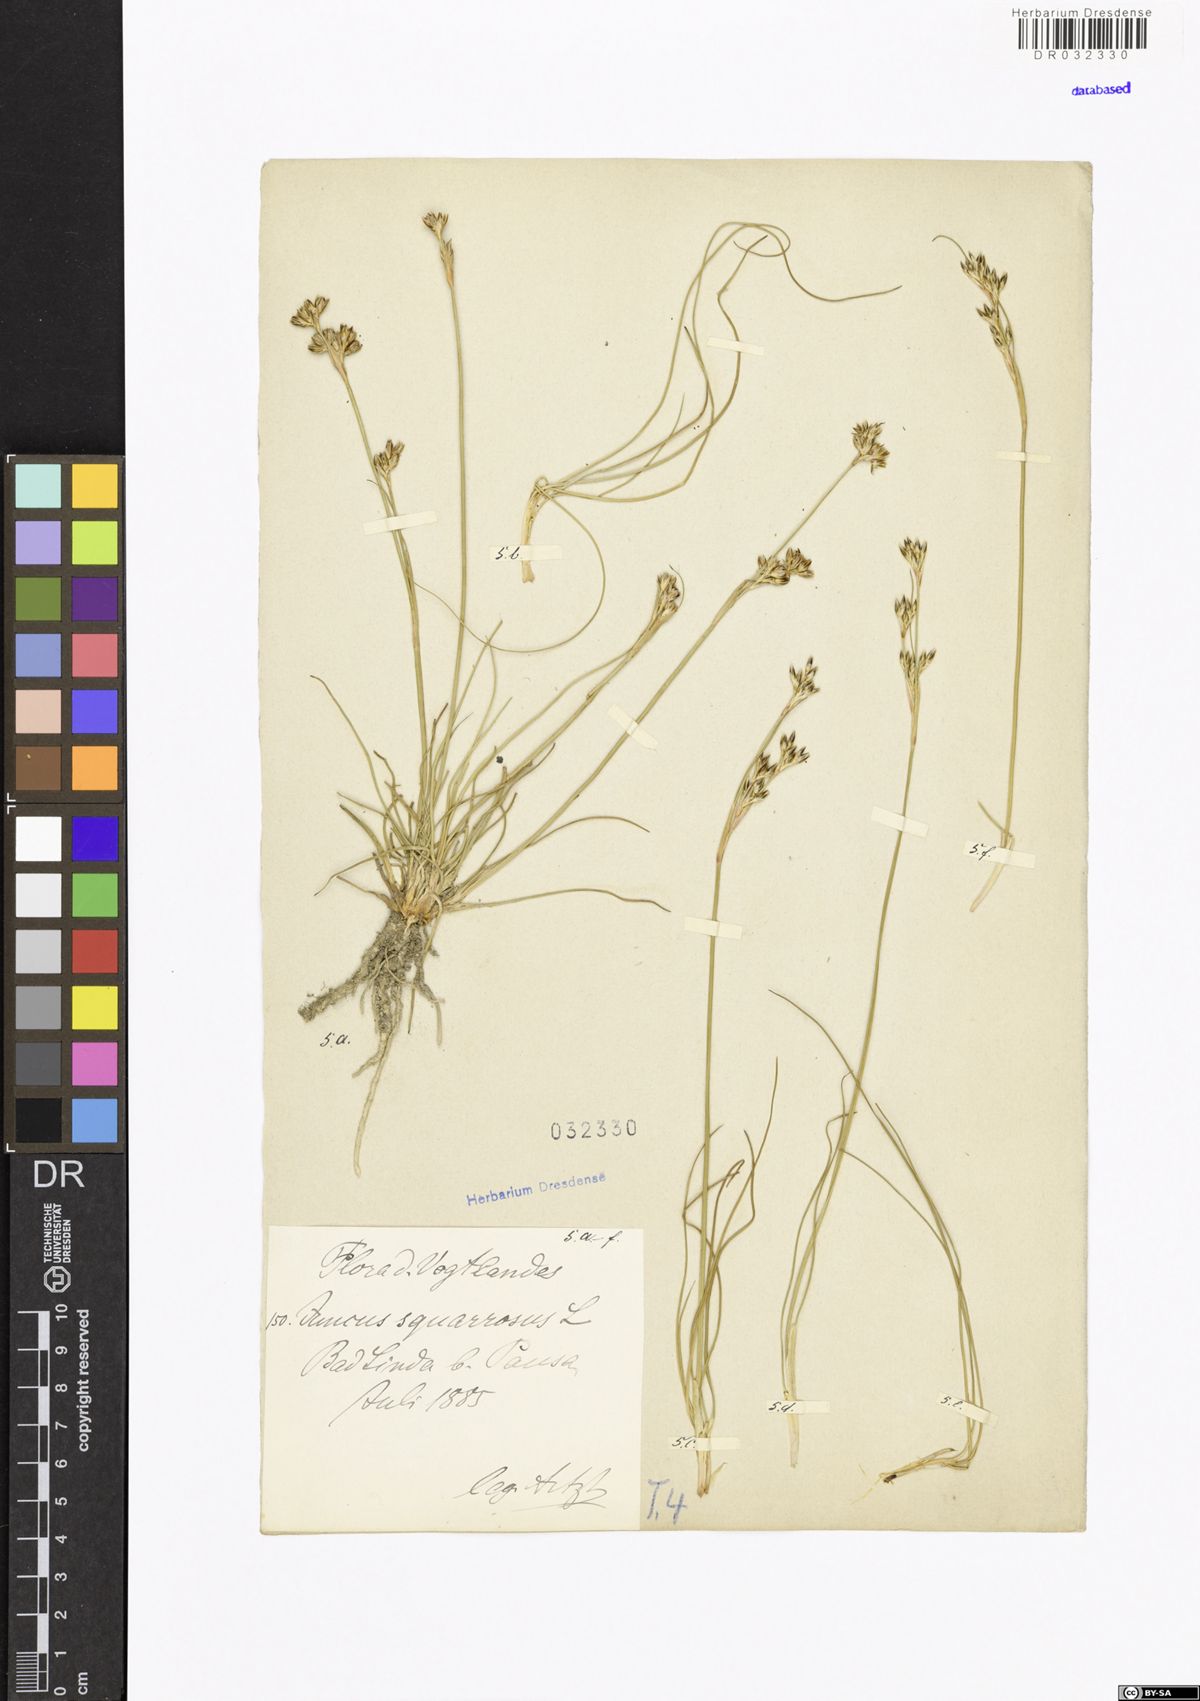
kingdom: Plantae
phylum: Tracheophyta
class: Liliopsida
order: Poales
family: Juncaceae
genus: Juncus
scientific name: Juncus squarrosus
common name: Heath rush
